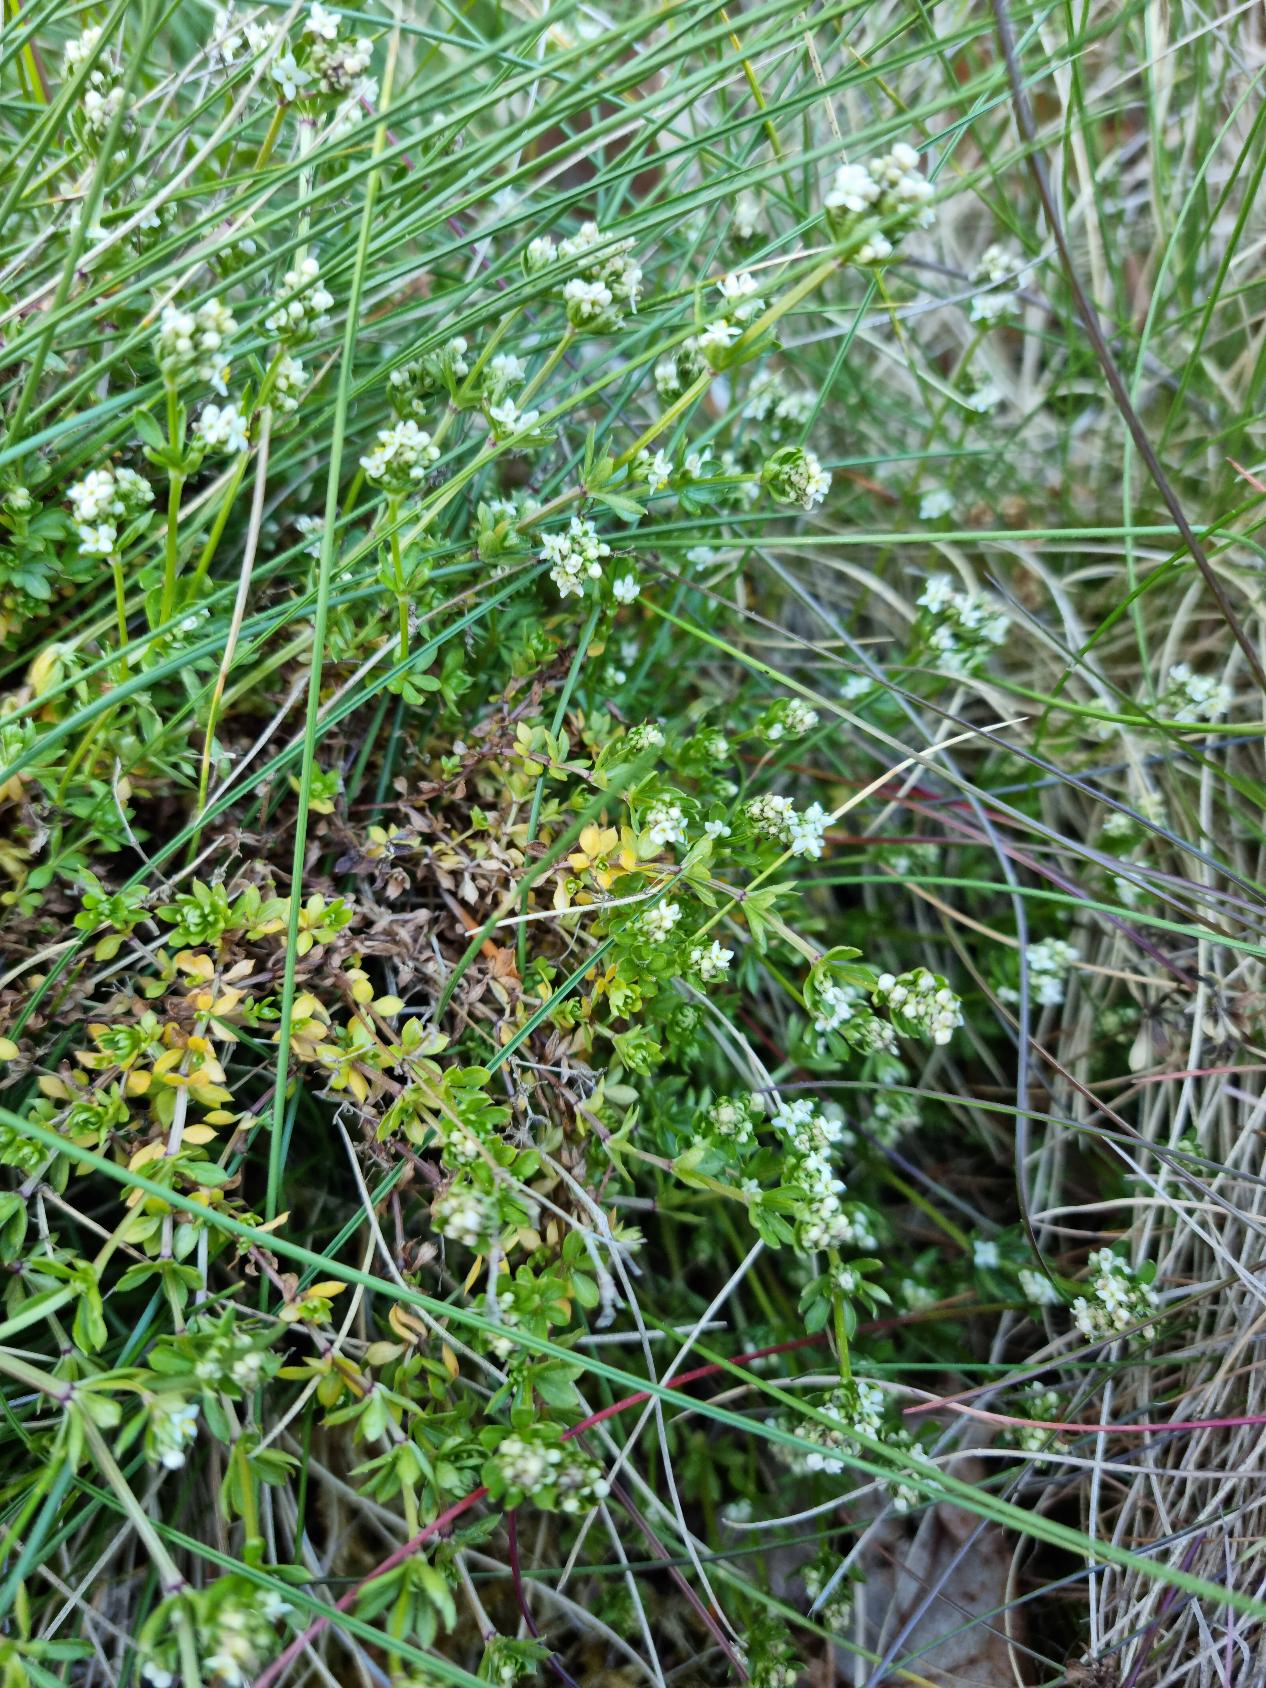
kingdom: Plantae
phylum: Tracheophyta
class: Magnoliopsida
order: Gentianales
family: Rubiaceae
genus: Galium
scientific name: Galium saxatile
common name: Lyng-snerre
